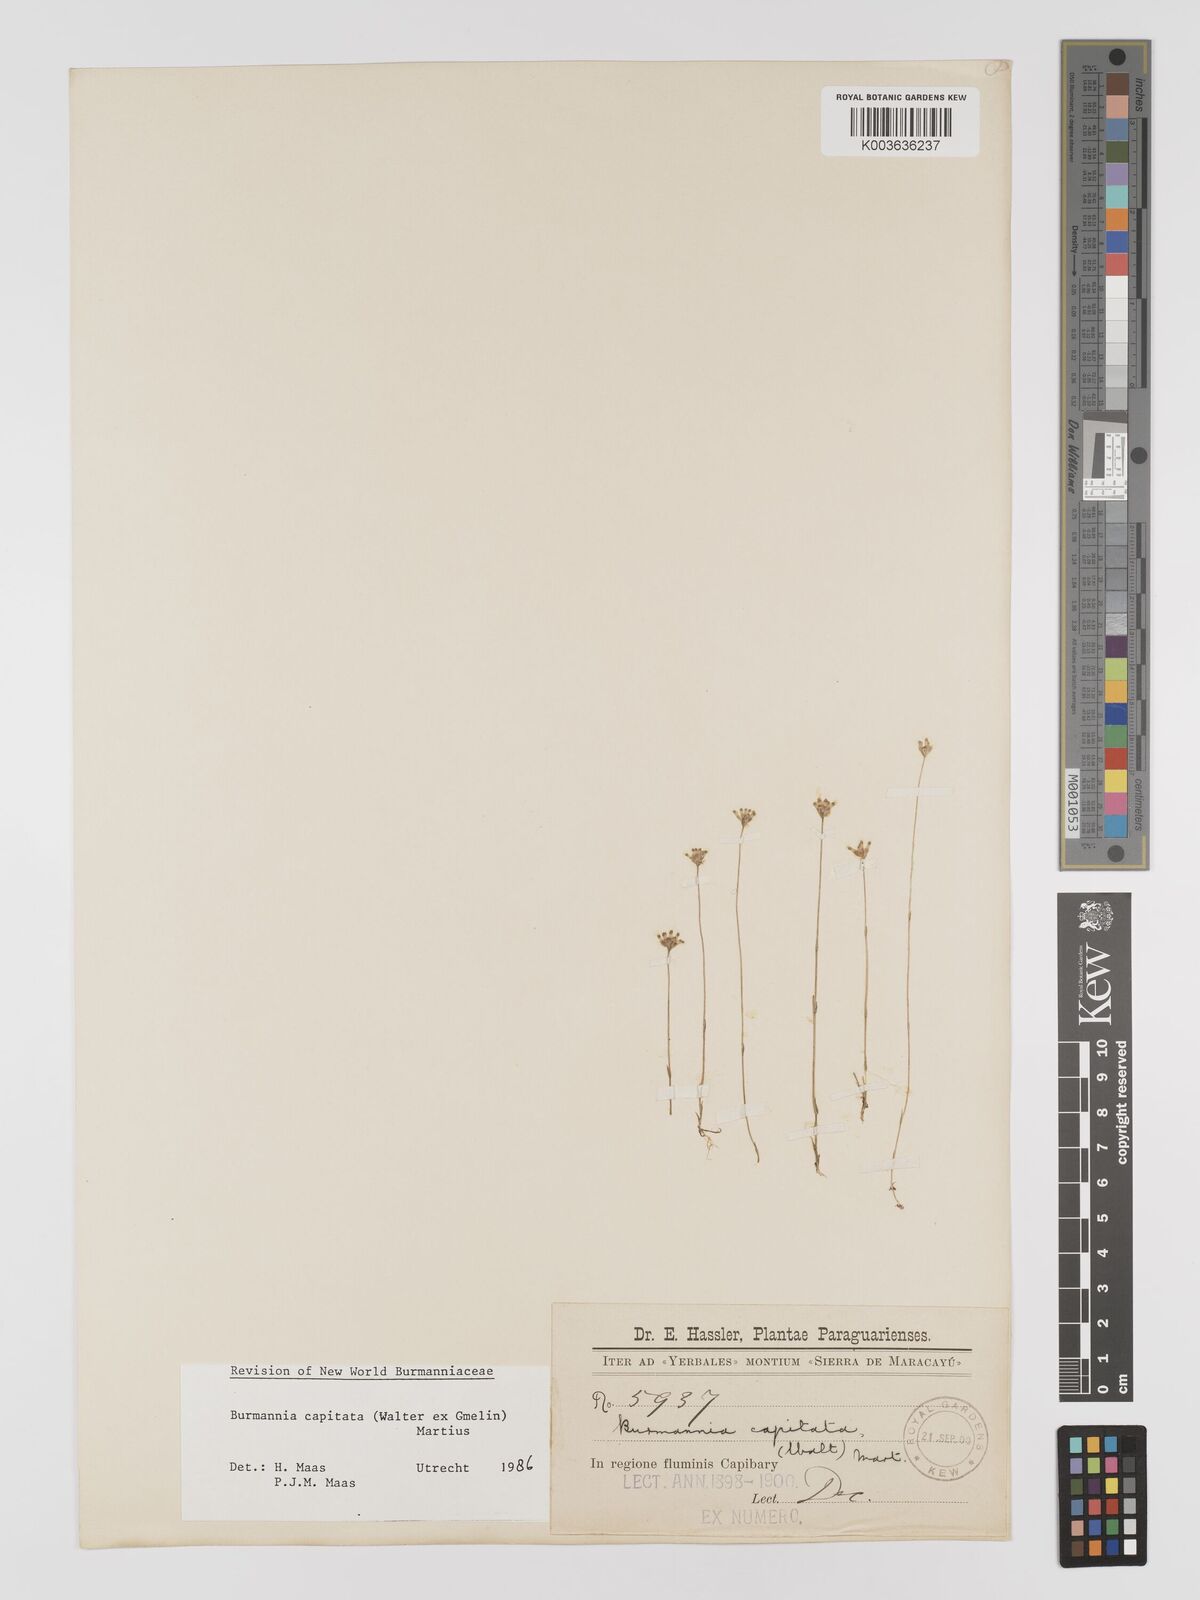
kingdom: Plantae
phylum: Tracheophyta
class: Liliopsida
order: Dioscoreales
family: Burmanniaceae
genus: Burmannia
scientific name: Burmannia capitata
